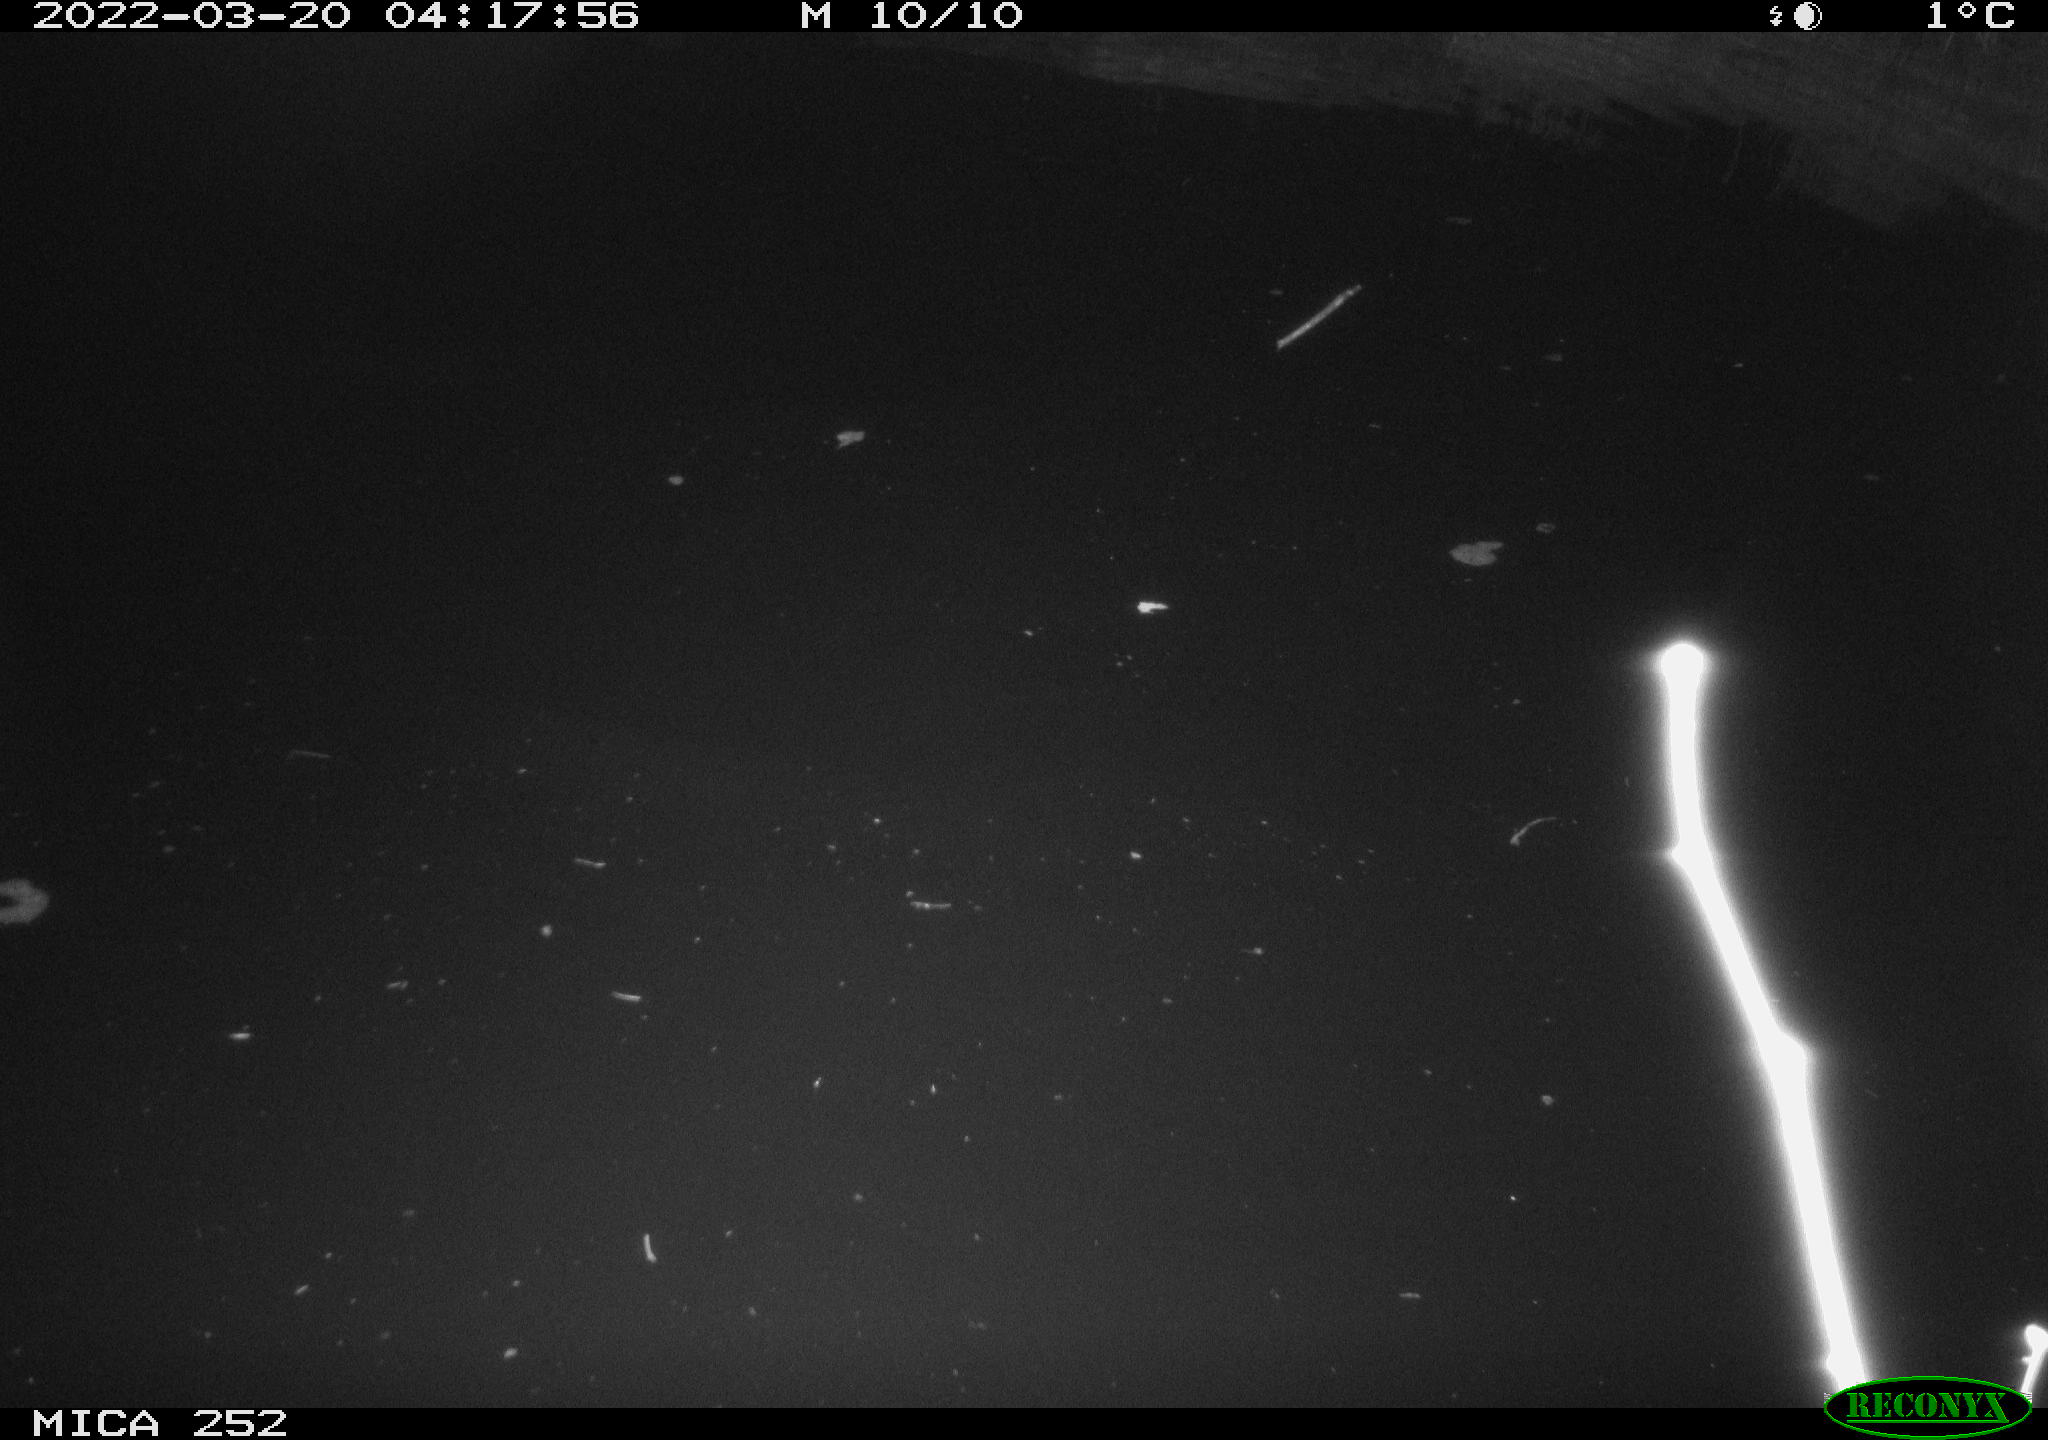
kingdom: Animalia
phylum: Chordata
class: Mammalia
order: Rodentia
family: Castoridae
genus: Castor
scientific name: Castor fiber
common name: Eurasian beaver
